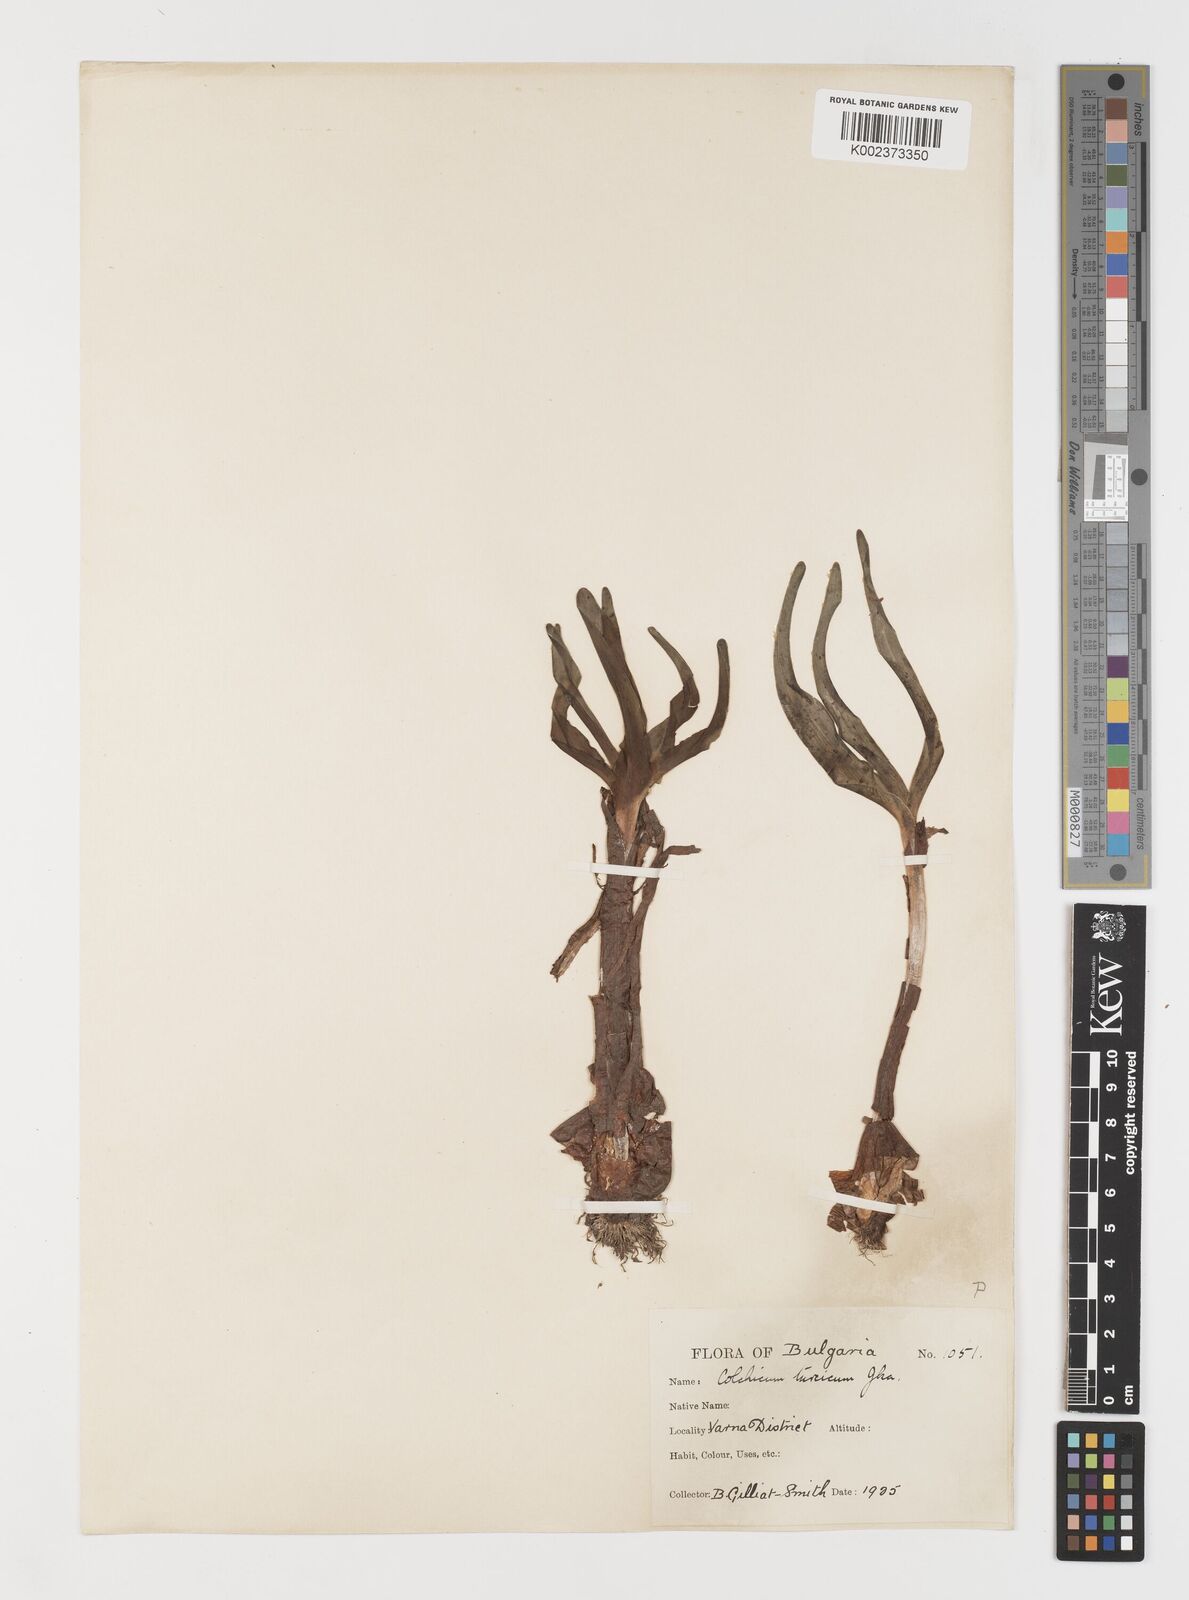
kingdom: Plantae
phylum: Tracheophyta
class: Liliopsida
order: Liliales
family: Colchicaceae
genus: Colchicum
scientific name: Colchicum turcicum
